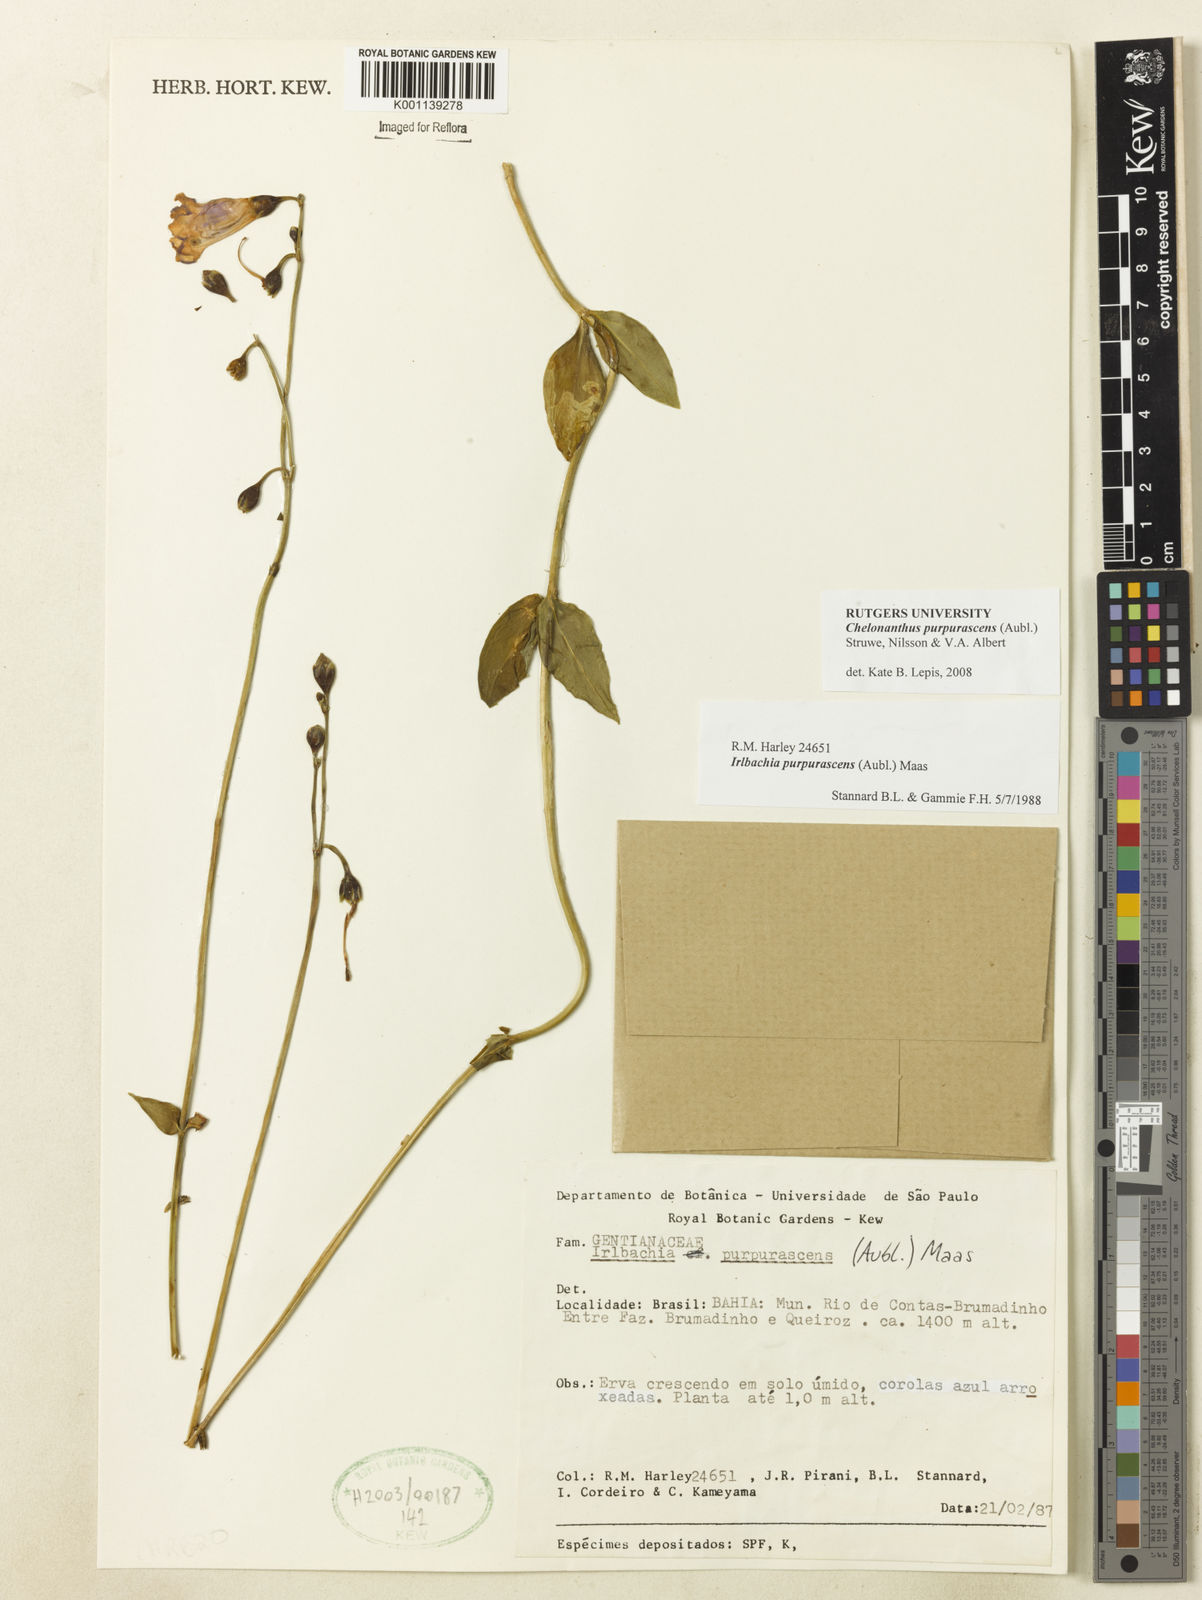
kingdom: Plantae
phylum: Tracheophyta
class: Magnoliopsida
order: Gentianales
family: Gentianaceae
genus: Chelonanthus
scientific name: Chelonanthus purpurascens
